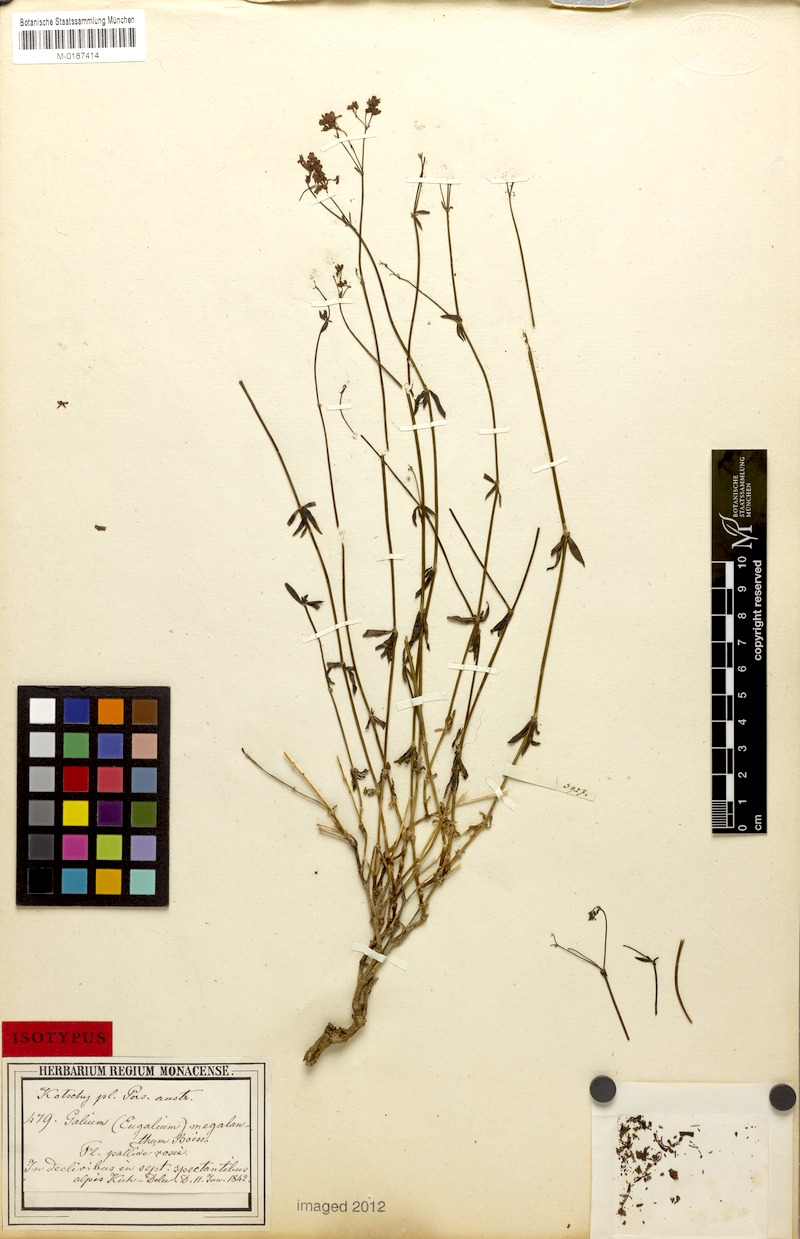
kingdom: Plantae
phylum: Tracheophyta
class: Magnoliopsida
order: Gentianales
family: Rubiaceae
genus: Galium
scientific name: Galium megalanthum
